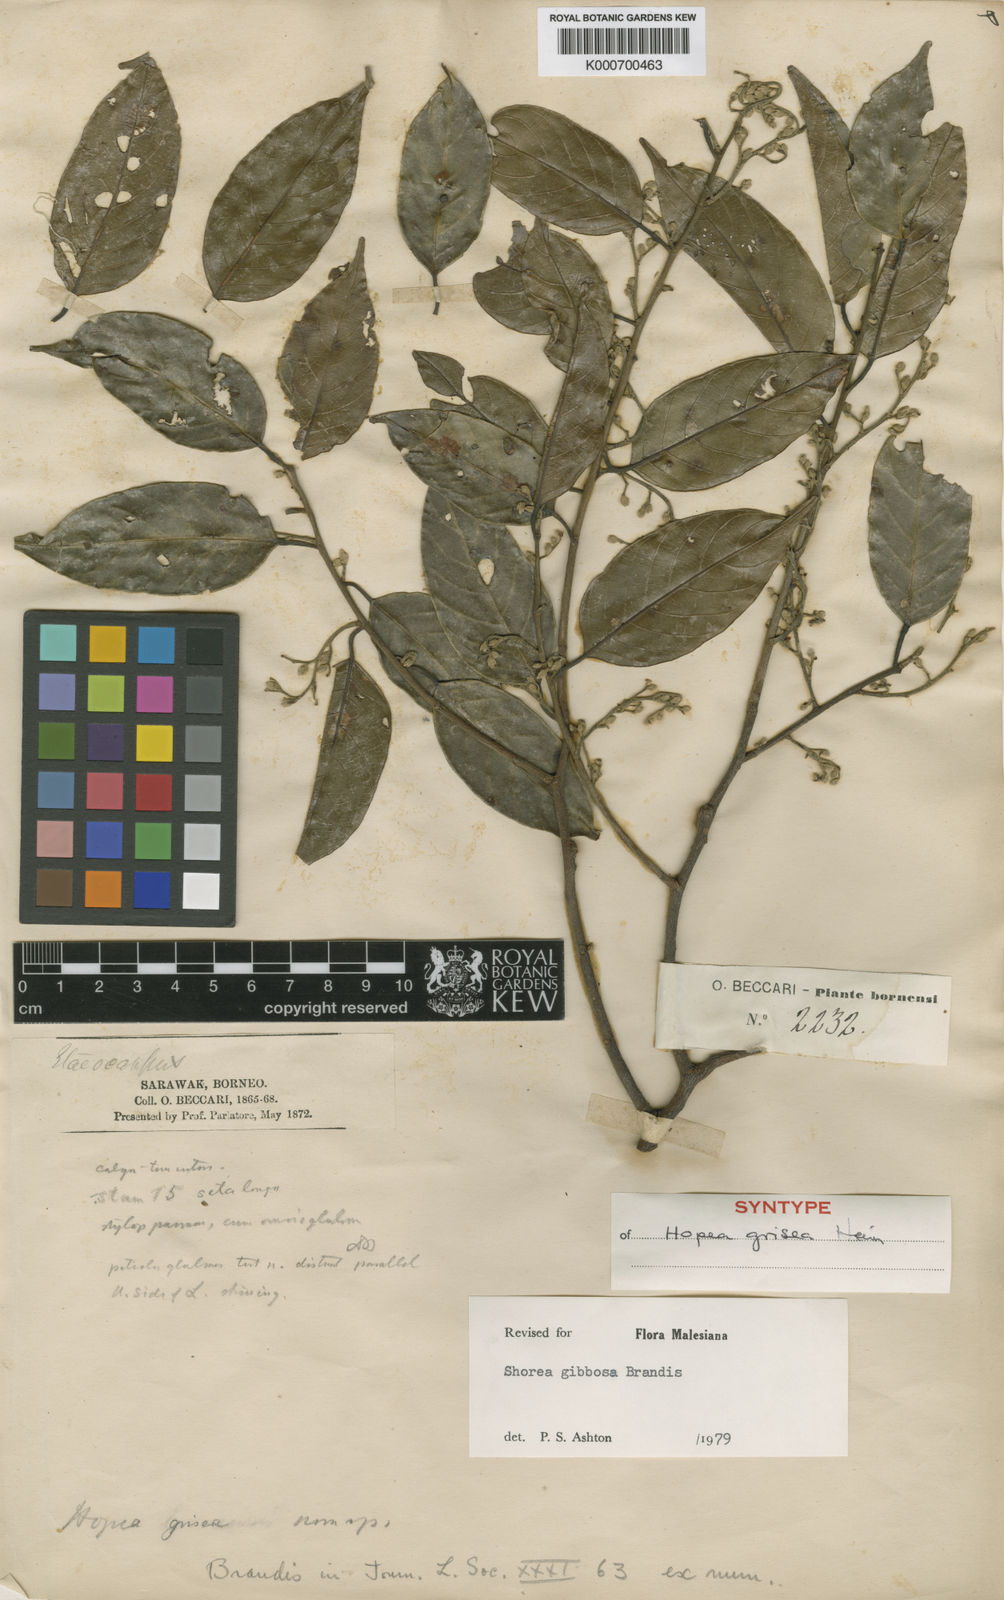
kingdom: Plantae
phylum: Tracheophyta
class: Magnoliopsida
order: Malvales
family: Dipterocarpaceae
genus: Shorea
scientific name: Shorea gibbosa
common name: Yellow meranti
